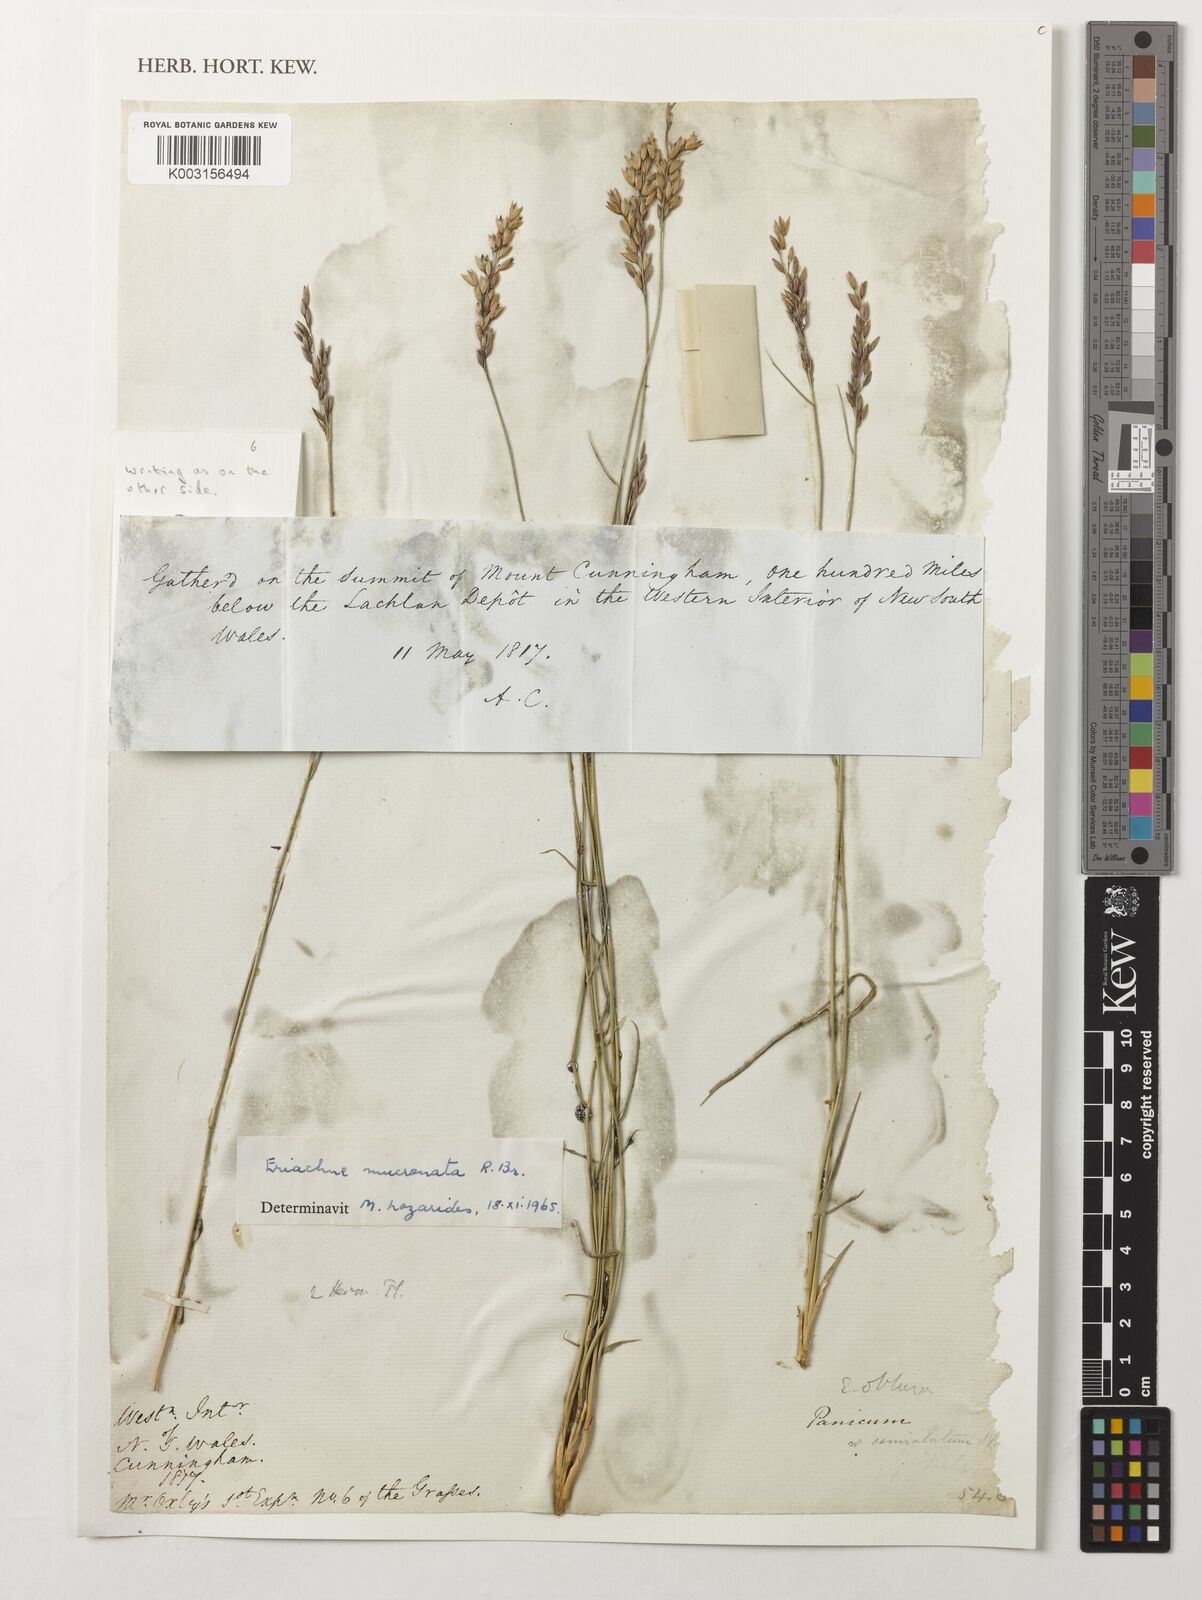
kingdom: Plantae
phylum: Tracheophyta
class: Liliopsida
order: Poales
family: Poaceae
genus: Eriachne
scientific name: Eriachne mucronata
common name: Mountain wanderrie grass
